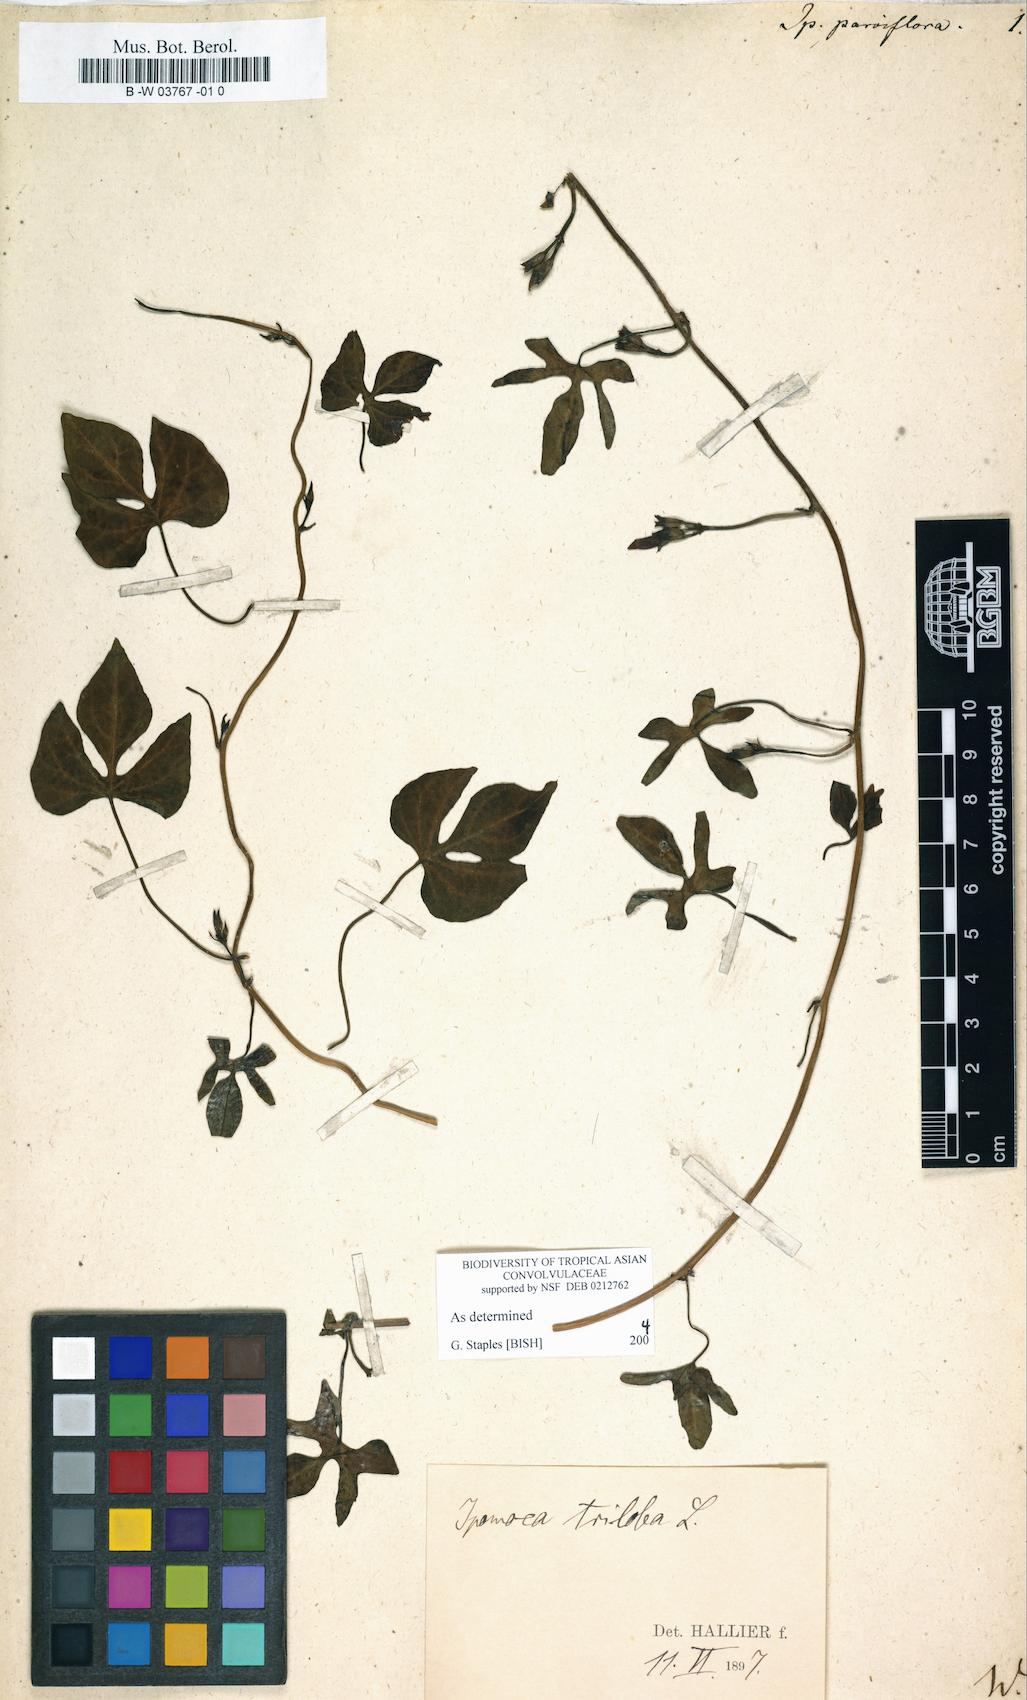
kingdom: Plantae
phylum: Tracheophyta
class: Magnoliopsida
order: Solanales
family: Convolvulaceae
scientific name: Convolvulaceae
